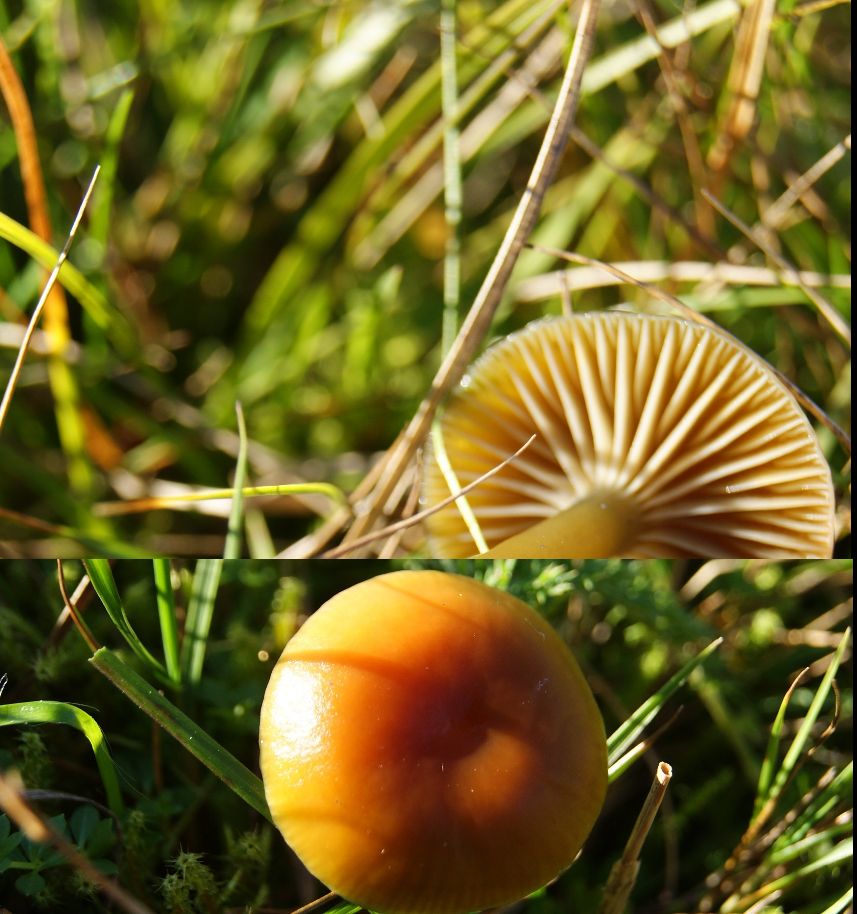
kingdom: Fungi
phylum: Basidiomycota
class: Agaricomycetes
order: Agaricales
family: Hygrophoraceae
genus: Gliophorus
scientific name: Gliophorus laetus
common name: brusk-vokshat
